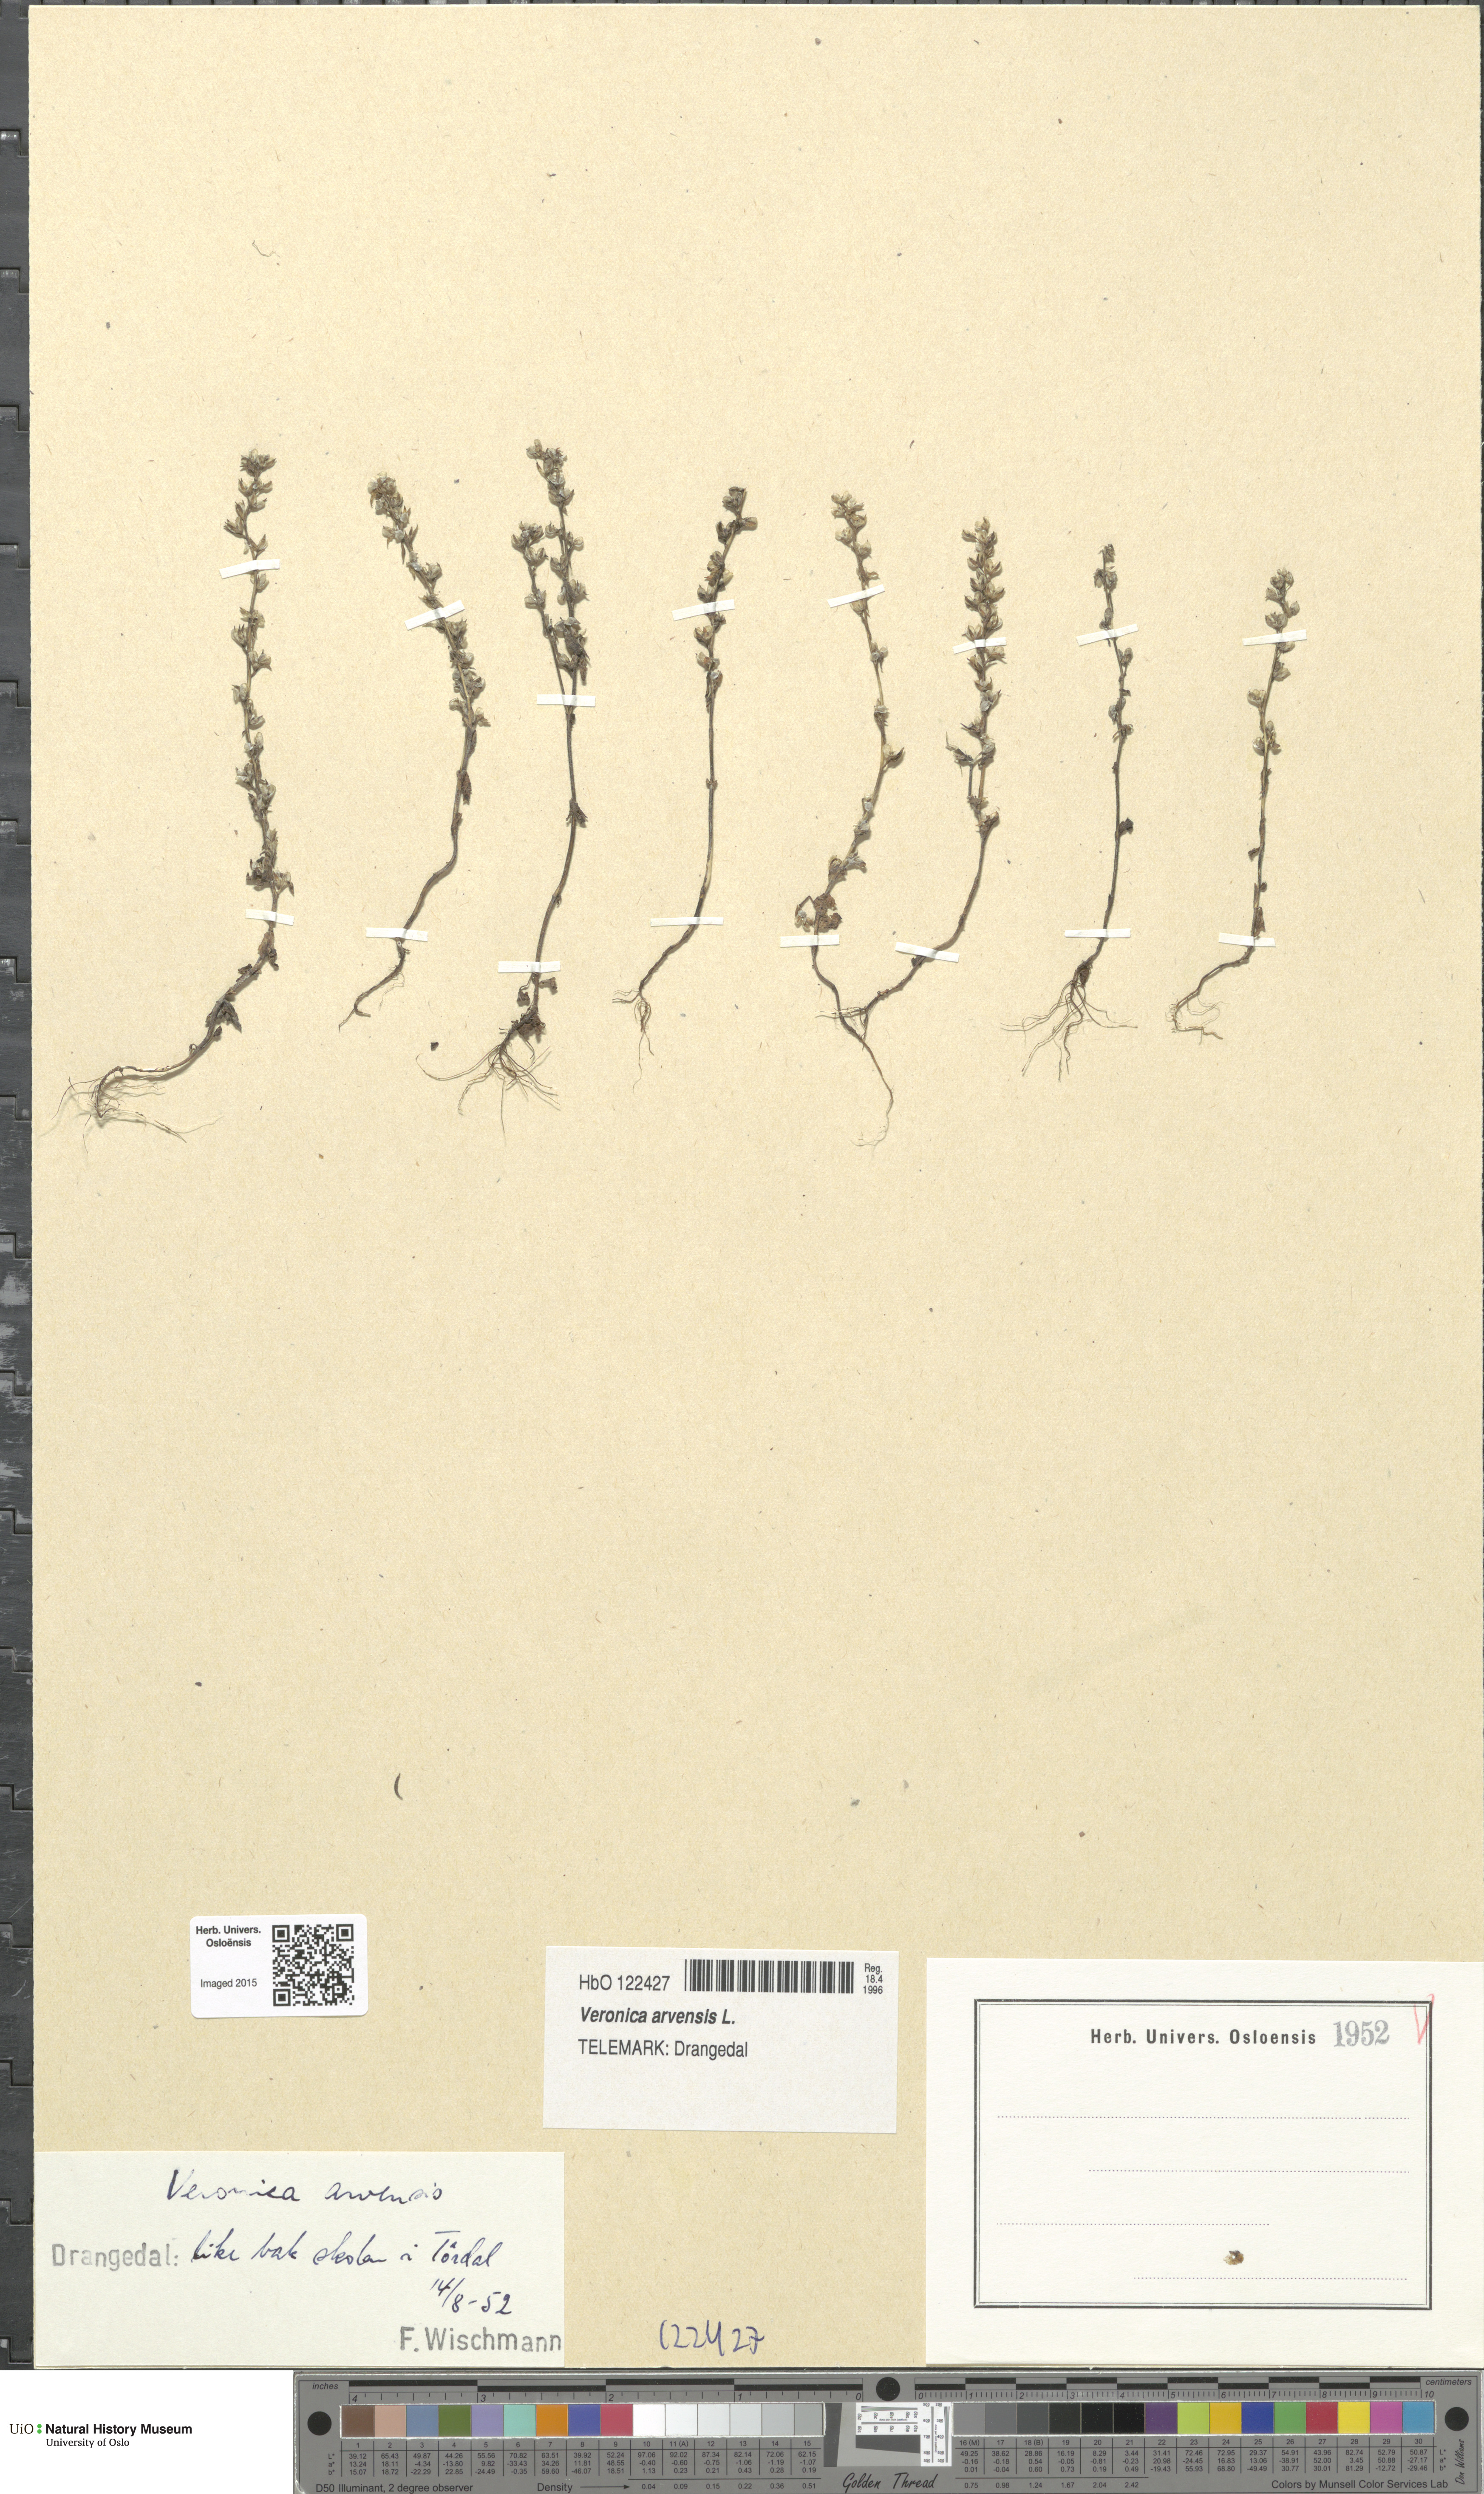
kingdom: Plantae
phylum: Tracheophyta
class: Magnoliopsida
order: Lamiales
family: Plantaginaceae
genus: Veronica
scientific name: Veronica arvensis
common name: Corn speedwell
